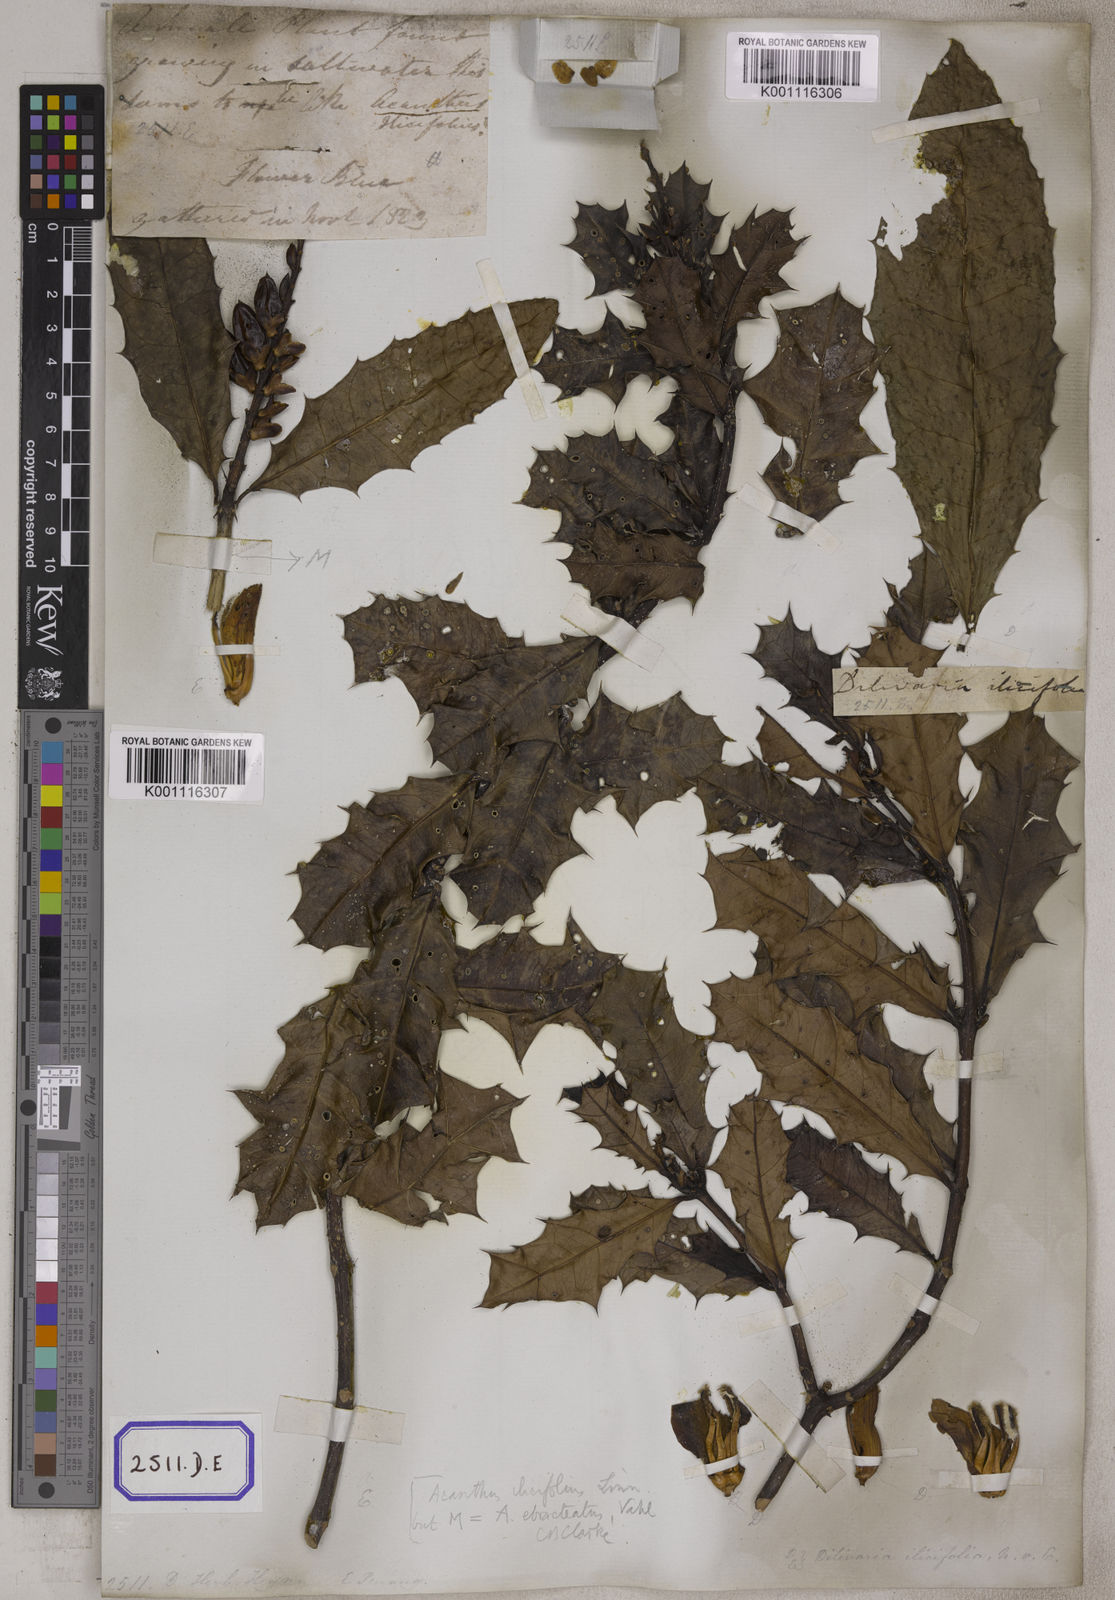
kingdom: Plantae
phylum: Tracheophyta
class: Magnoliopsida
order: Lamiales
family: Acanthaceae
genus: Acanthus
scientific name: Acanthus ilicifolius
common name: Holy mangrove
